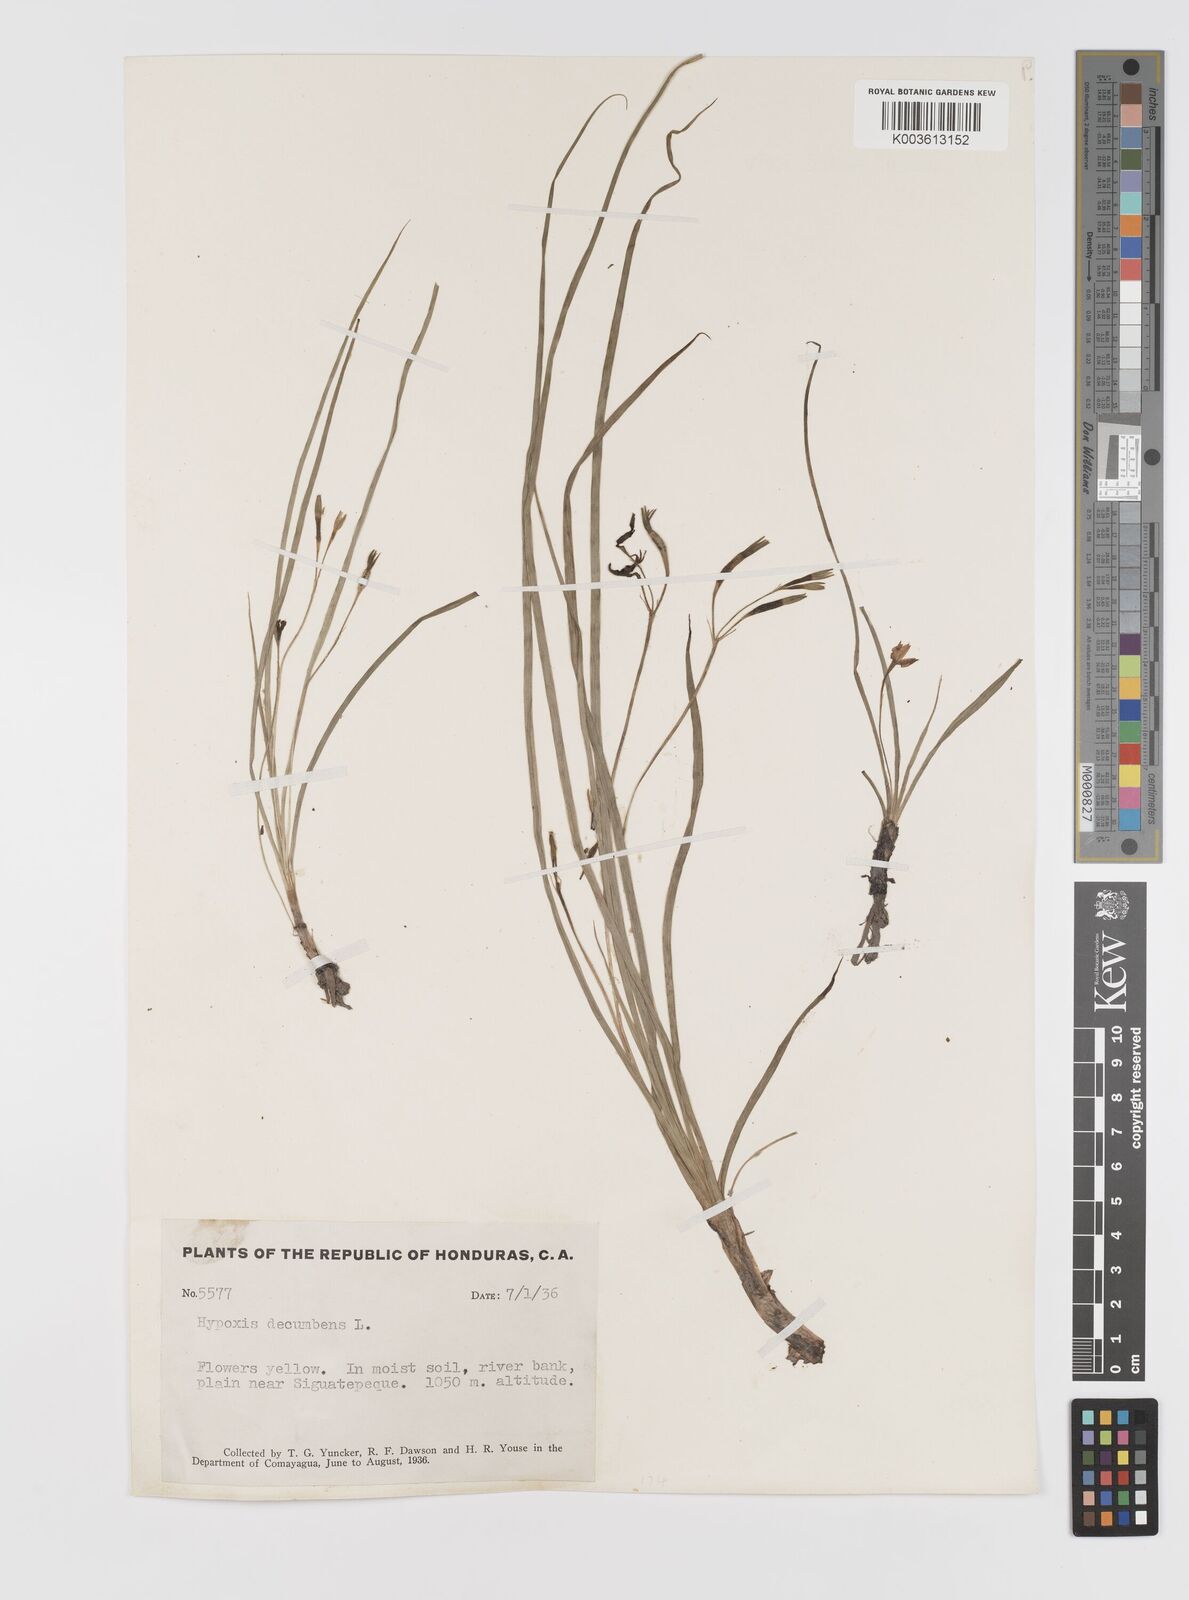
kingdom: Plantae
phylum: Tracheophyta
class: Liliopsida
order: Asparagales
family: Hypoxidaceae
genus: Hypoxis
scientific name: Hypoxis decumbens
